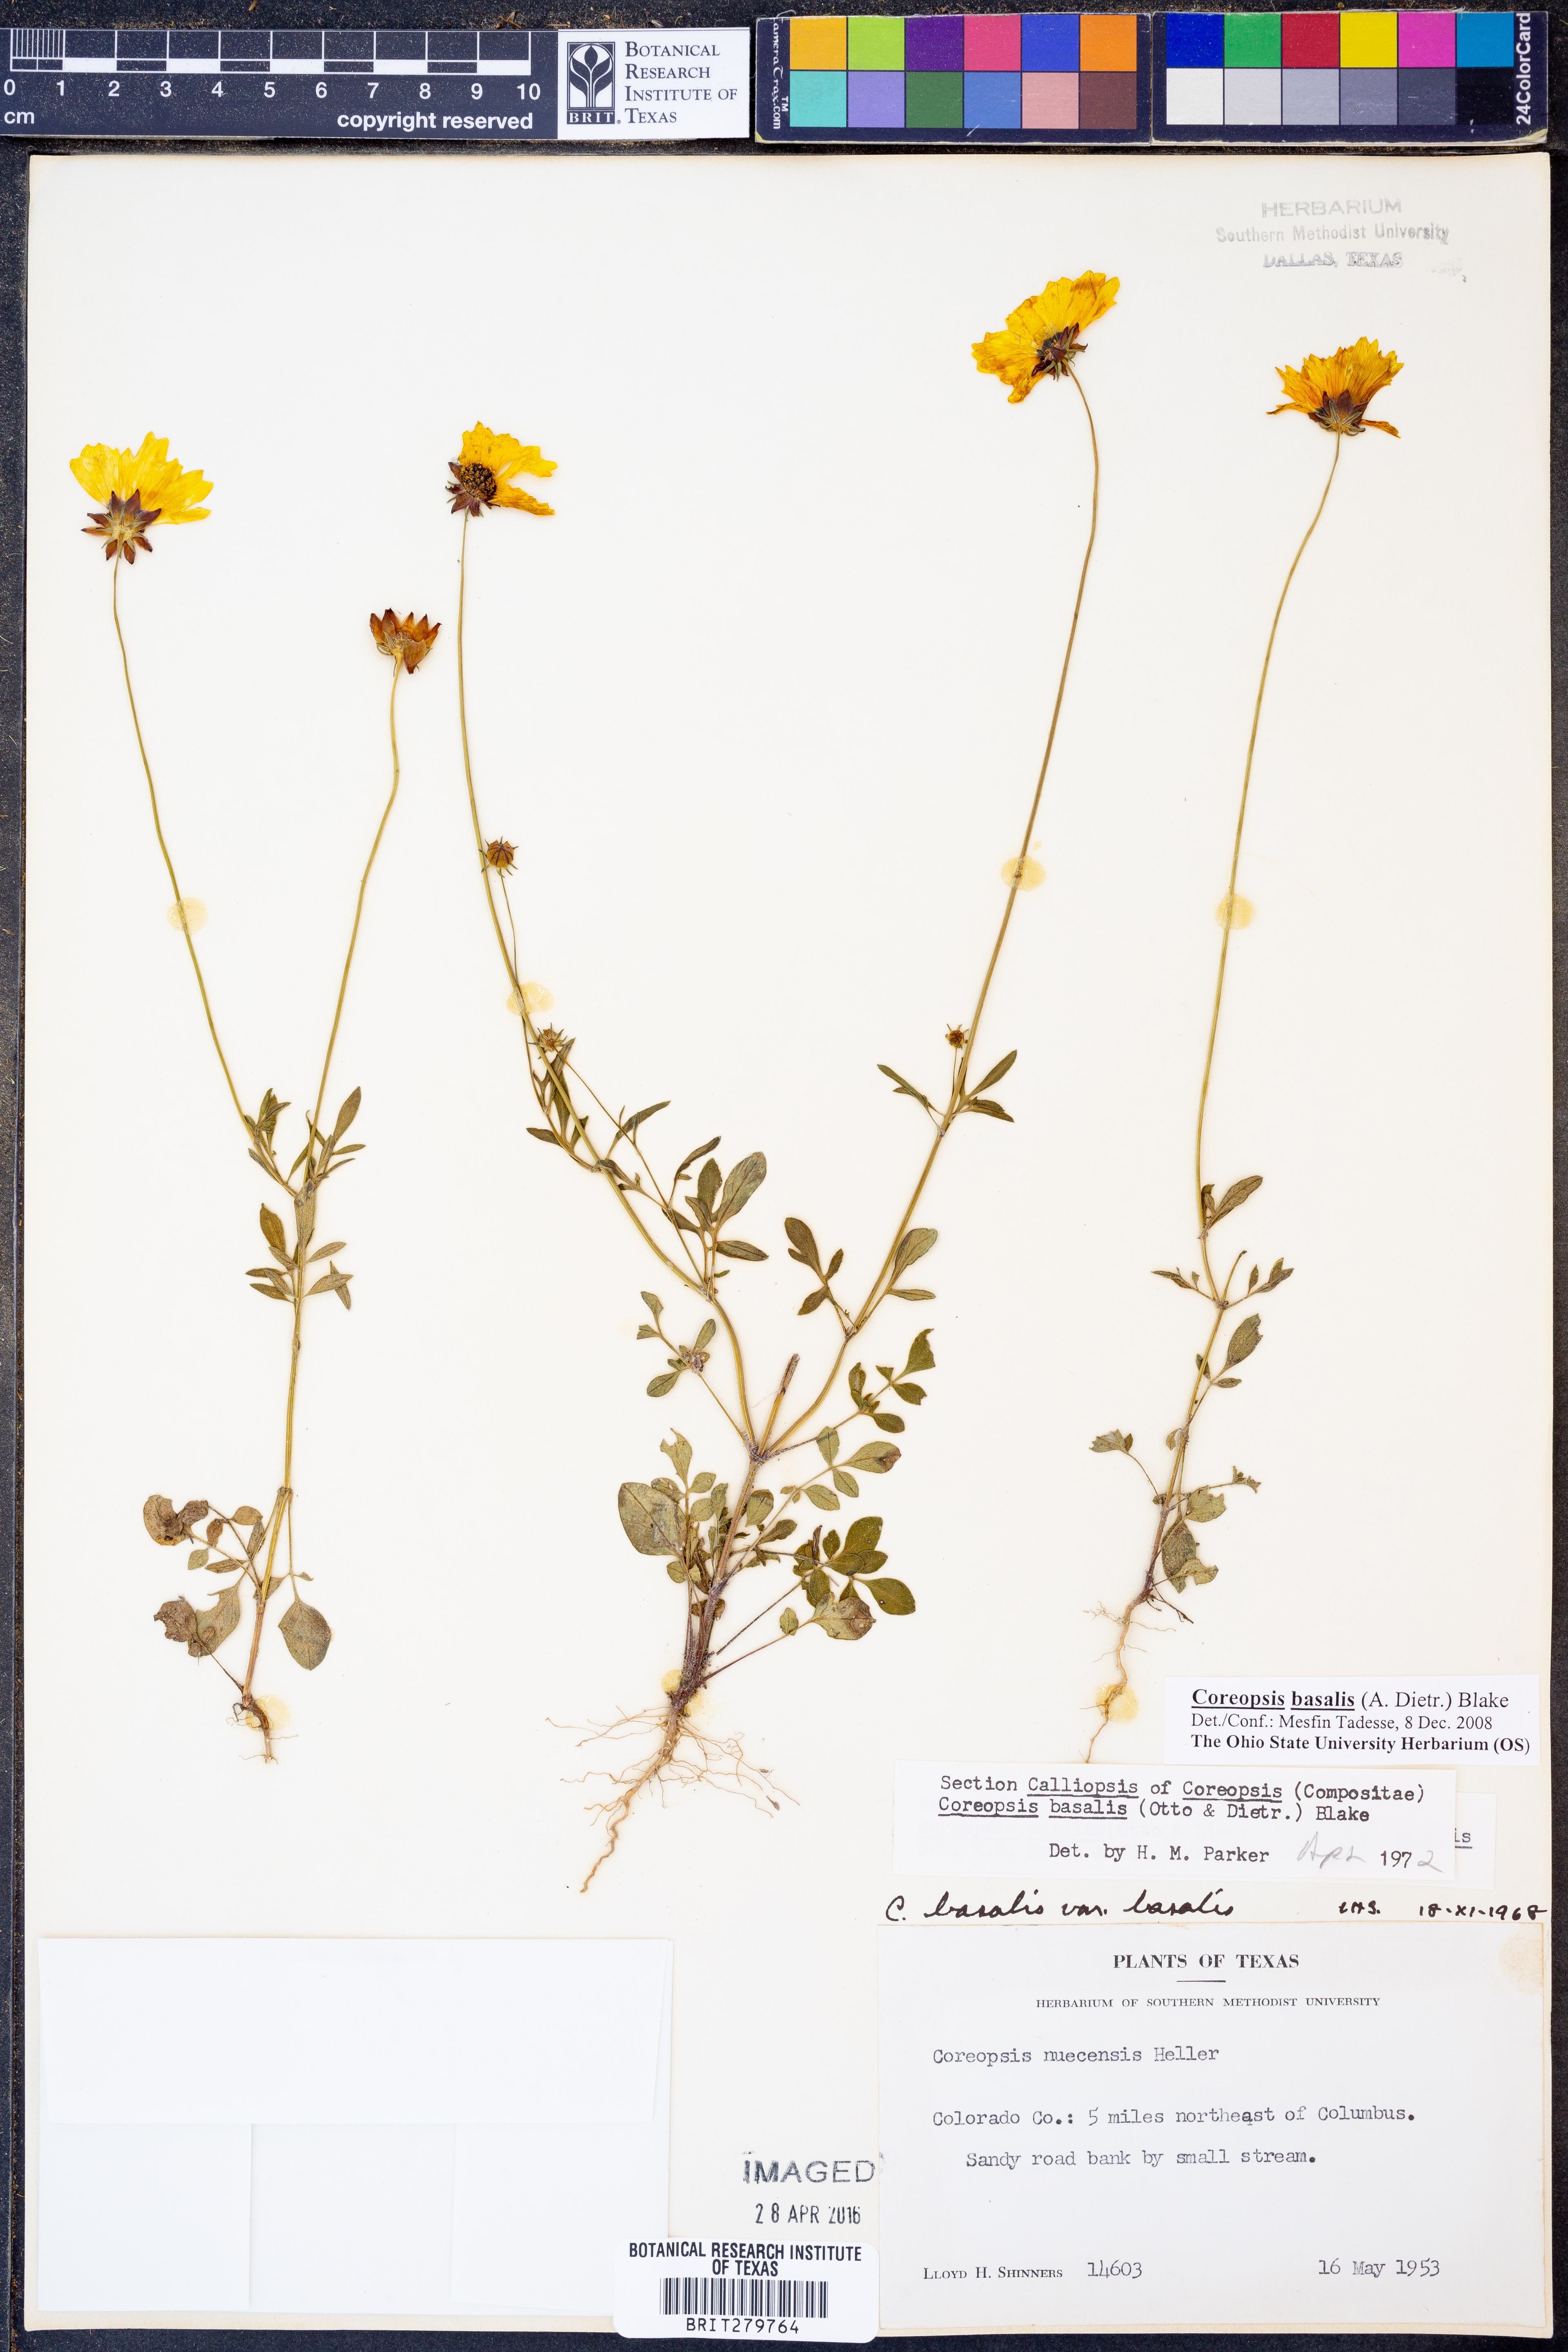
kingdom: Plantae
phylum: Tracheophyta
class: Magnoliopsida
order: Asterales
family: Asteraceae
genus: Coreopsis
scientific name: Coreopsis basalis
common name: Golden-mane coreopsis
